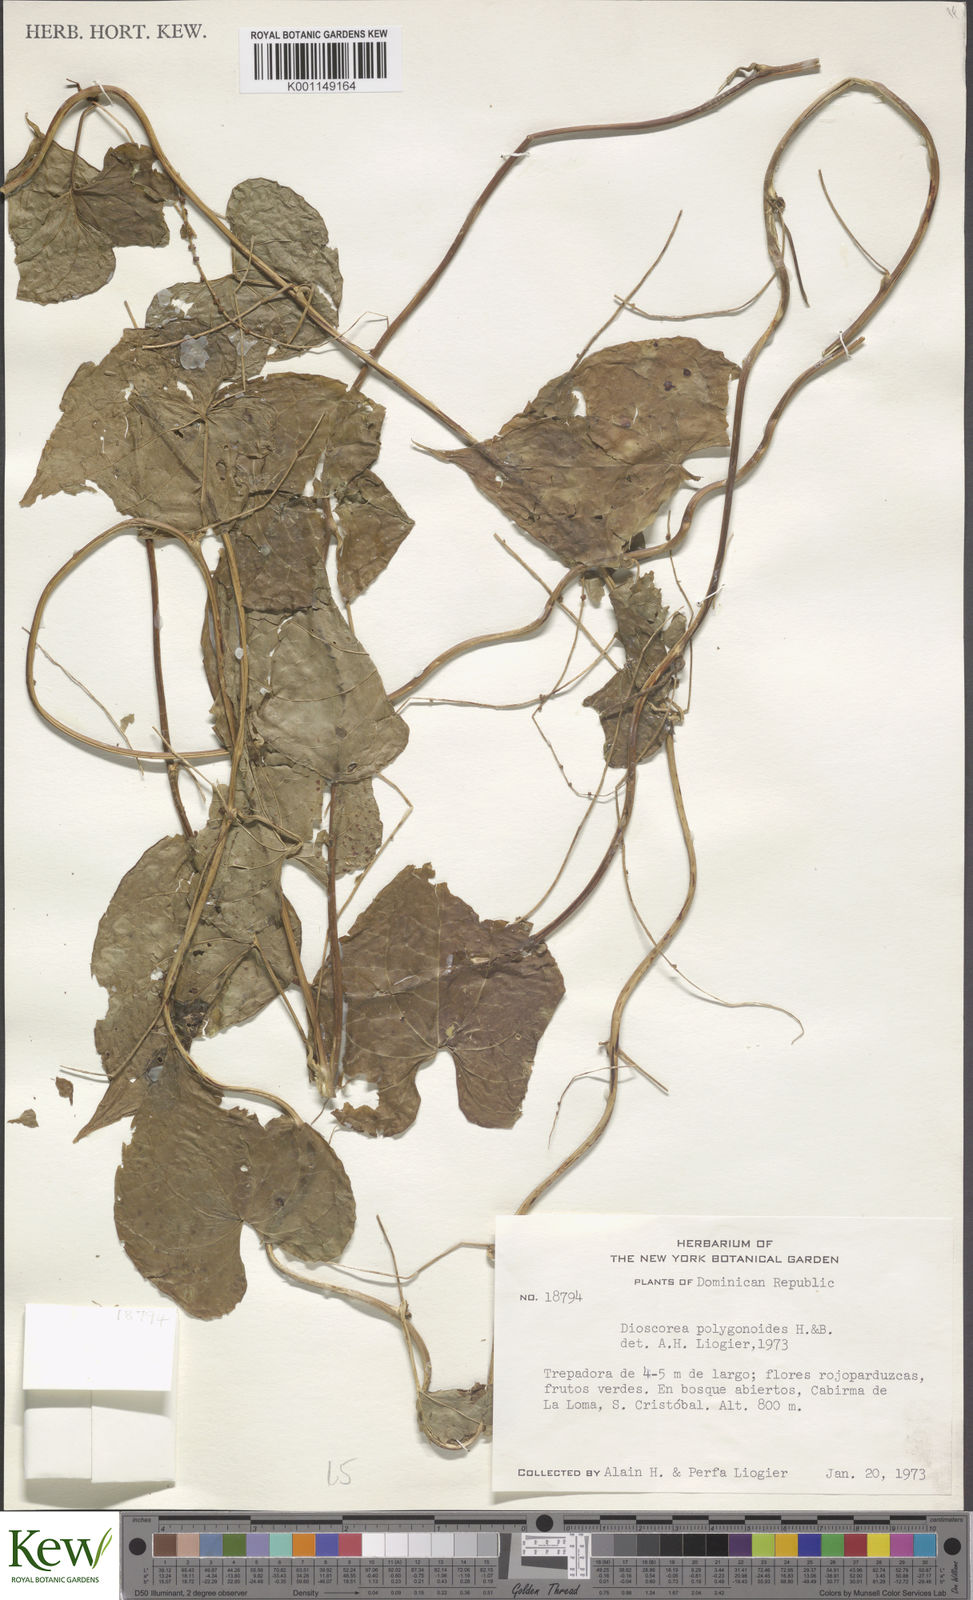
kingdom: Plantae
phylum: Tracheophyta
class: Liliopsida
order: Dioscoreales
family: Dioscoreaceae
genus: Dioscorea
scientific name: Dioscorea polygonoides
